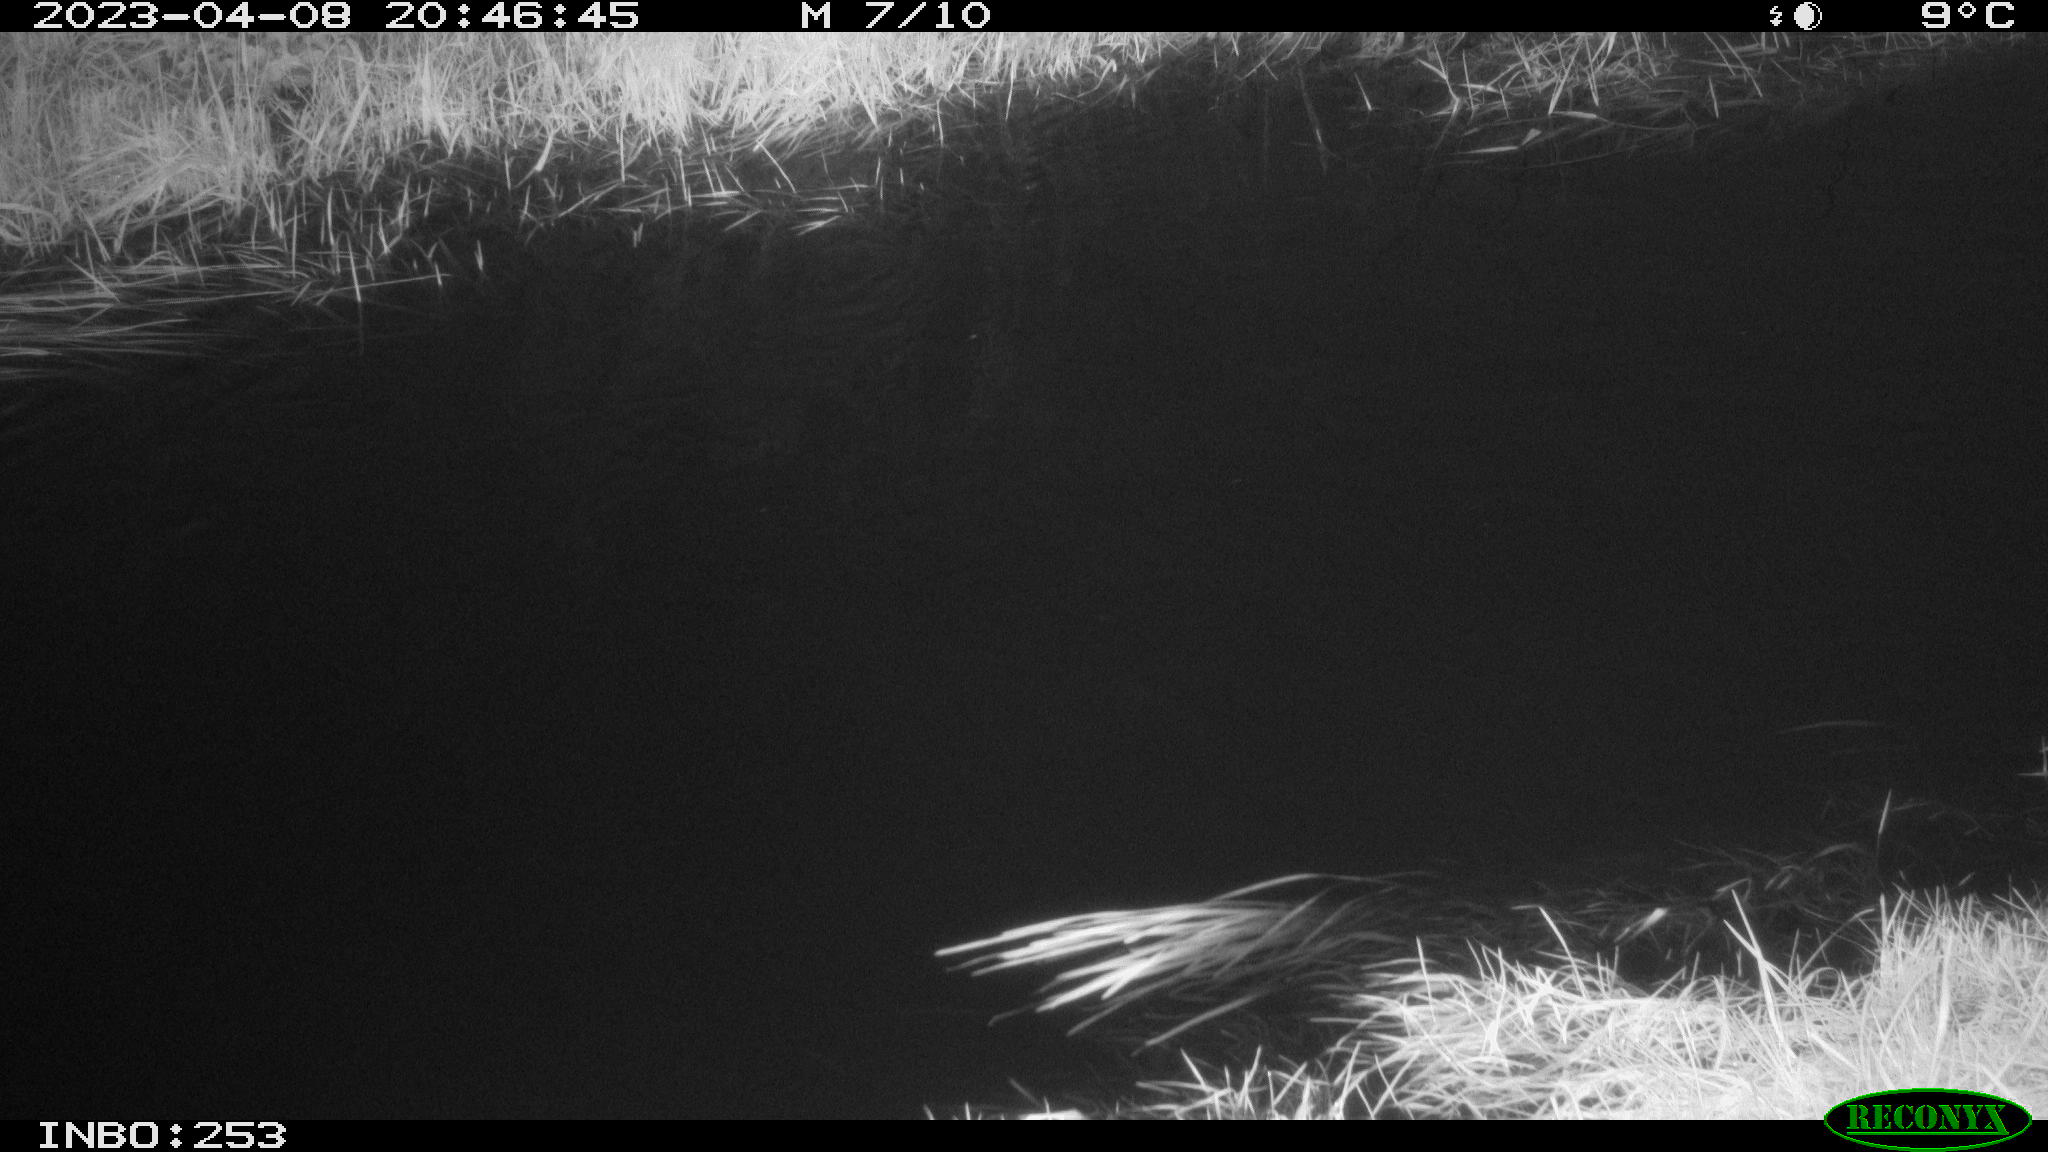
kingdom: Animalia
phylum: Chordata
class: Aves
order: Anseriformes
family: Anatidae
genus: Anas
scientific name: Anas
